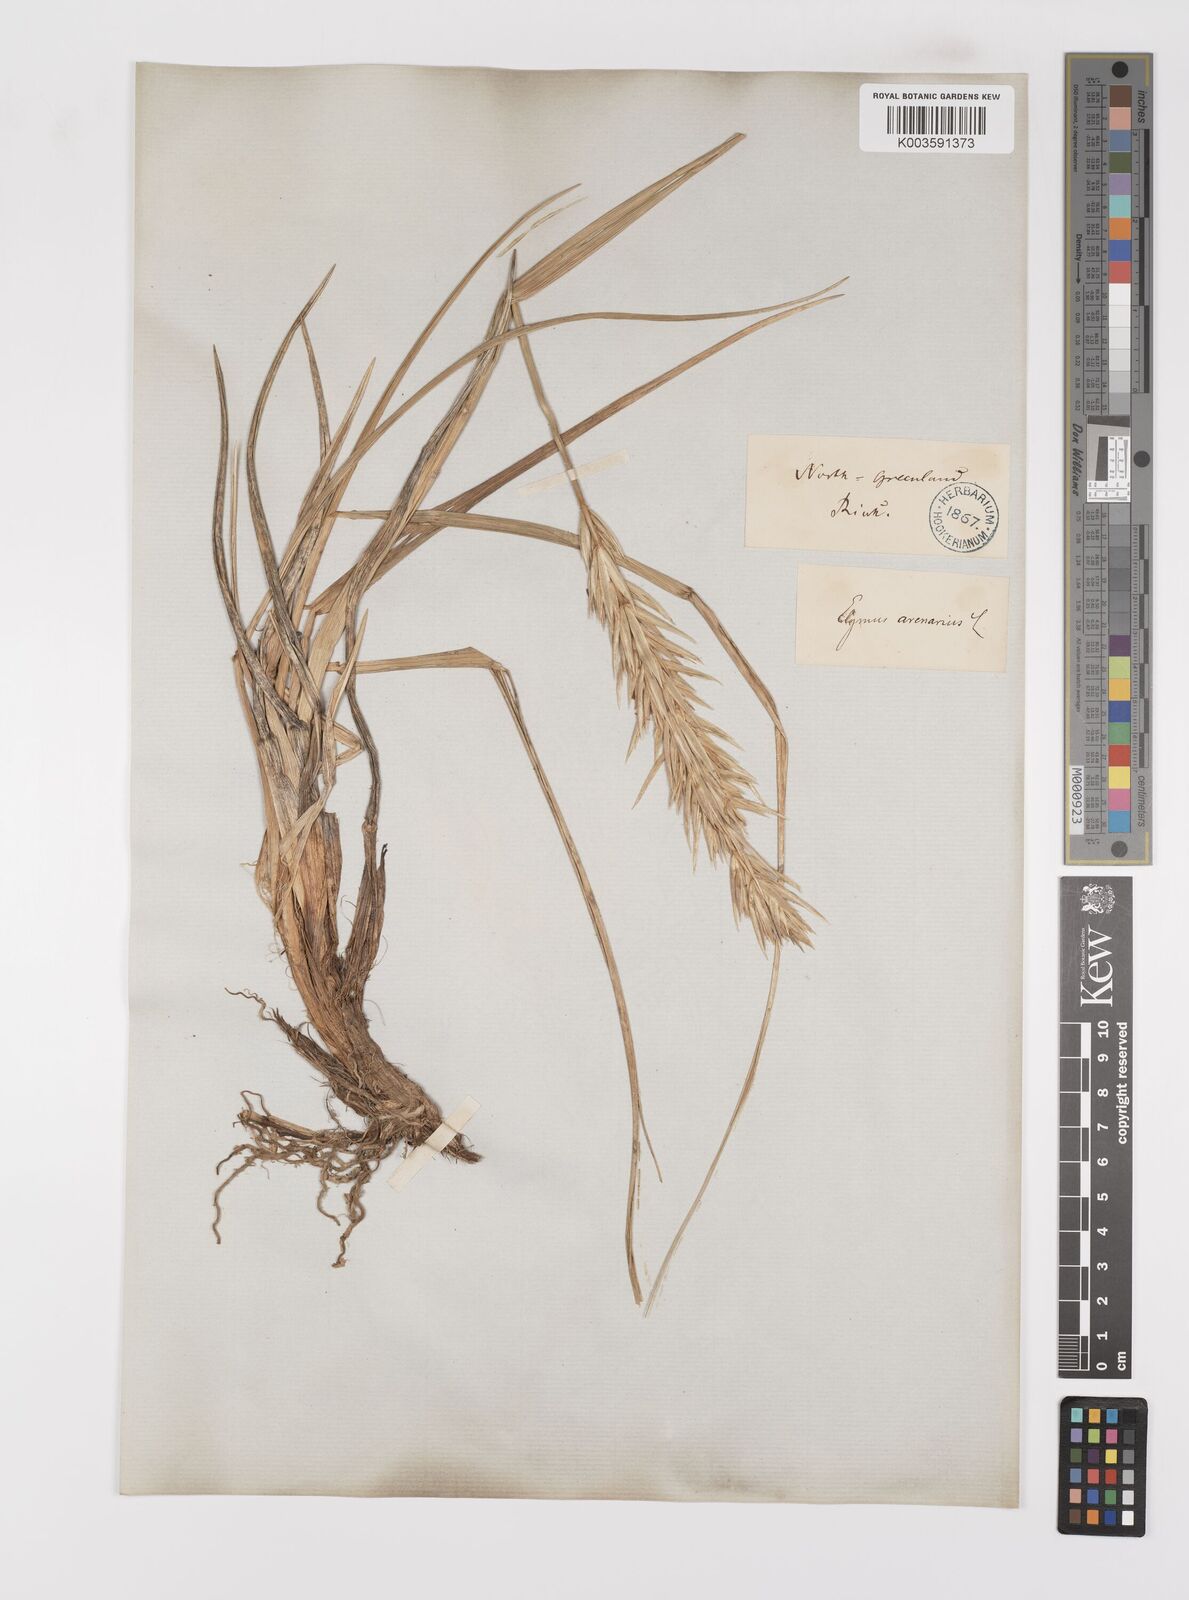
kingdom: Plantae
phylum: Tracheophyta
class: Liliopsida
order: Poales
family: Poaceae
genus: Leymus
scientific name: Leymus mollis
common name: American dune grass
